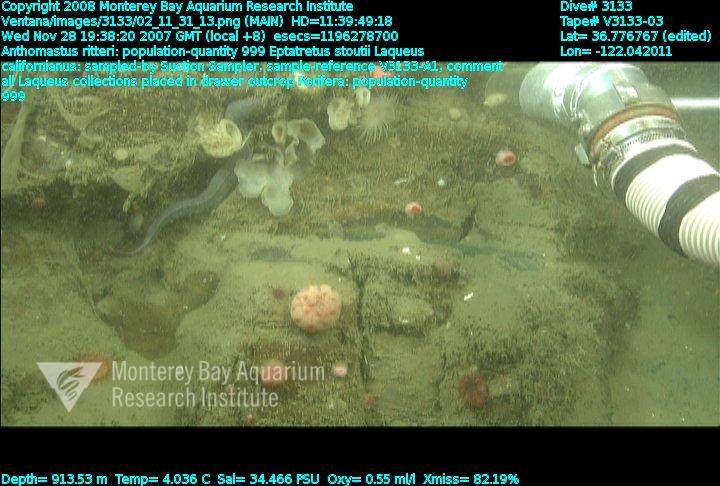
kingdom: Animalia
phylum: Porifera
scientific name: Porifera
